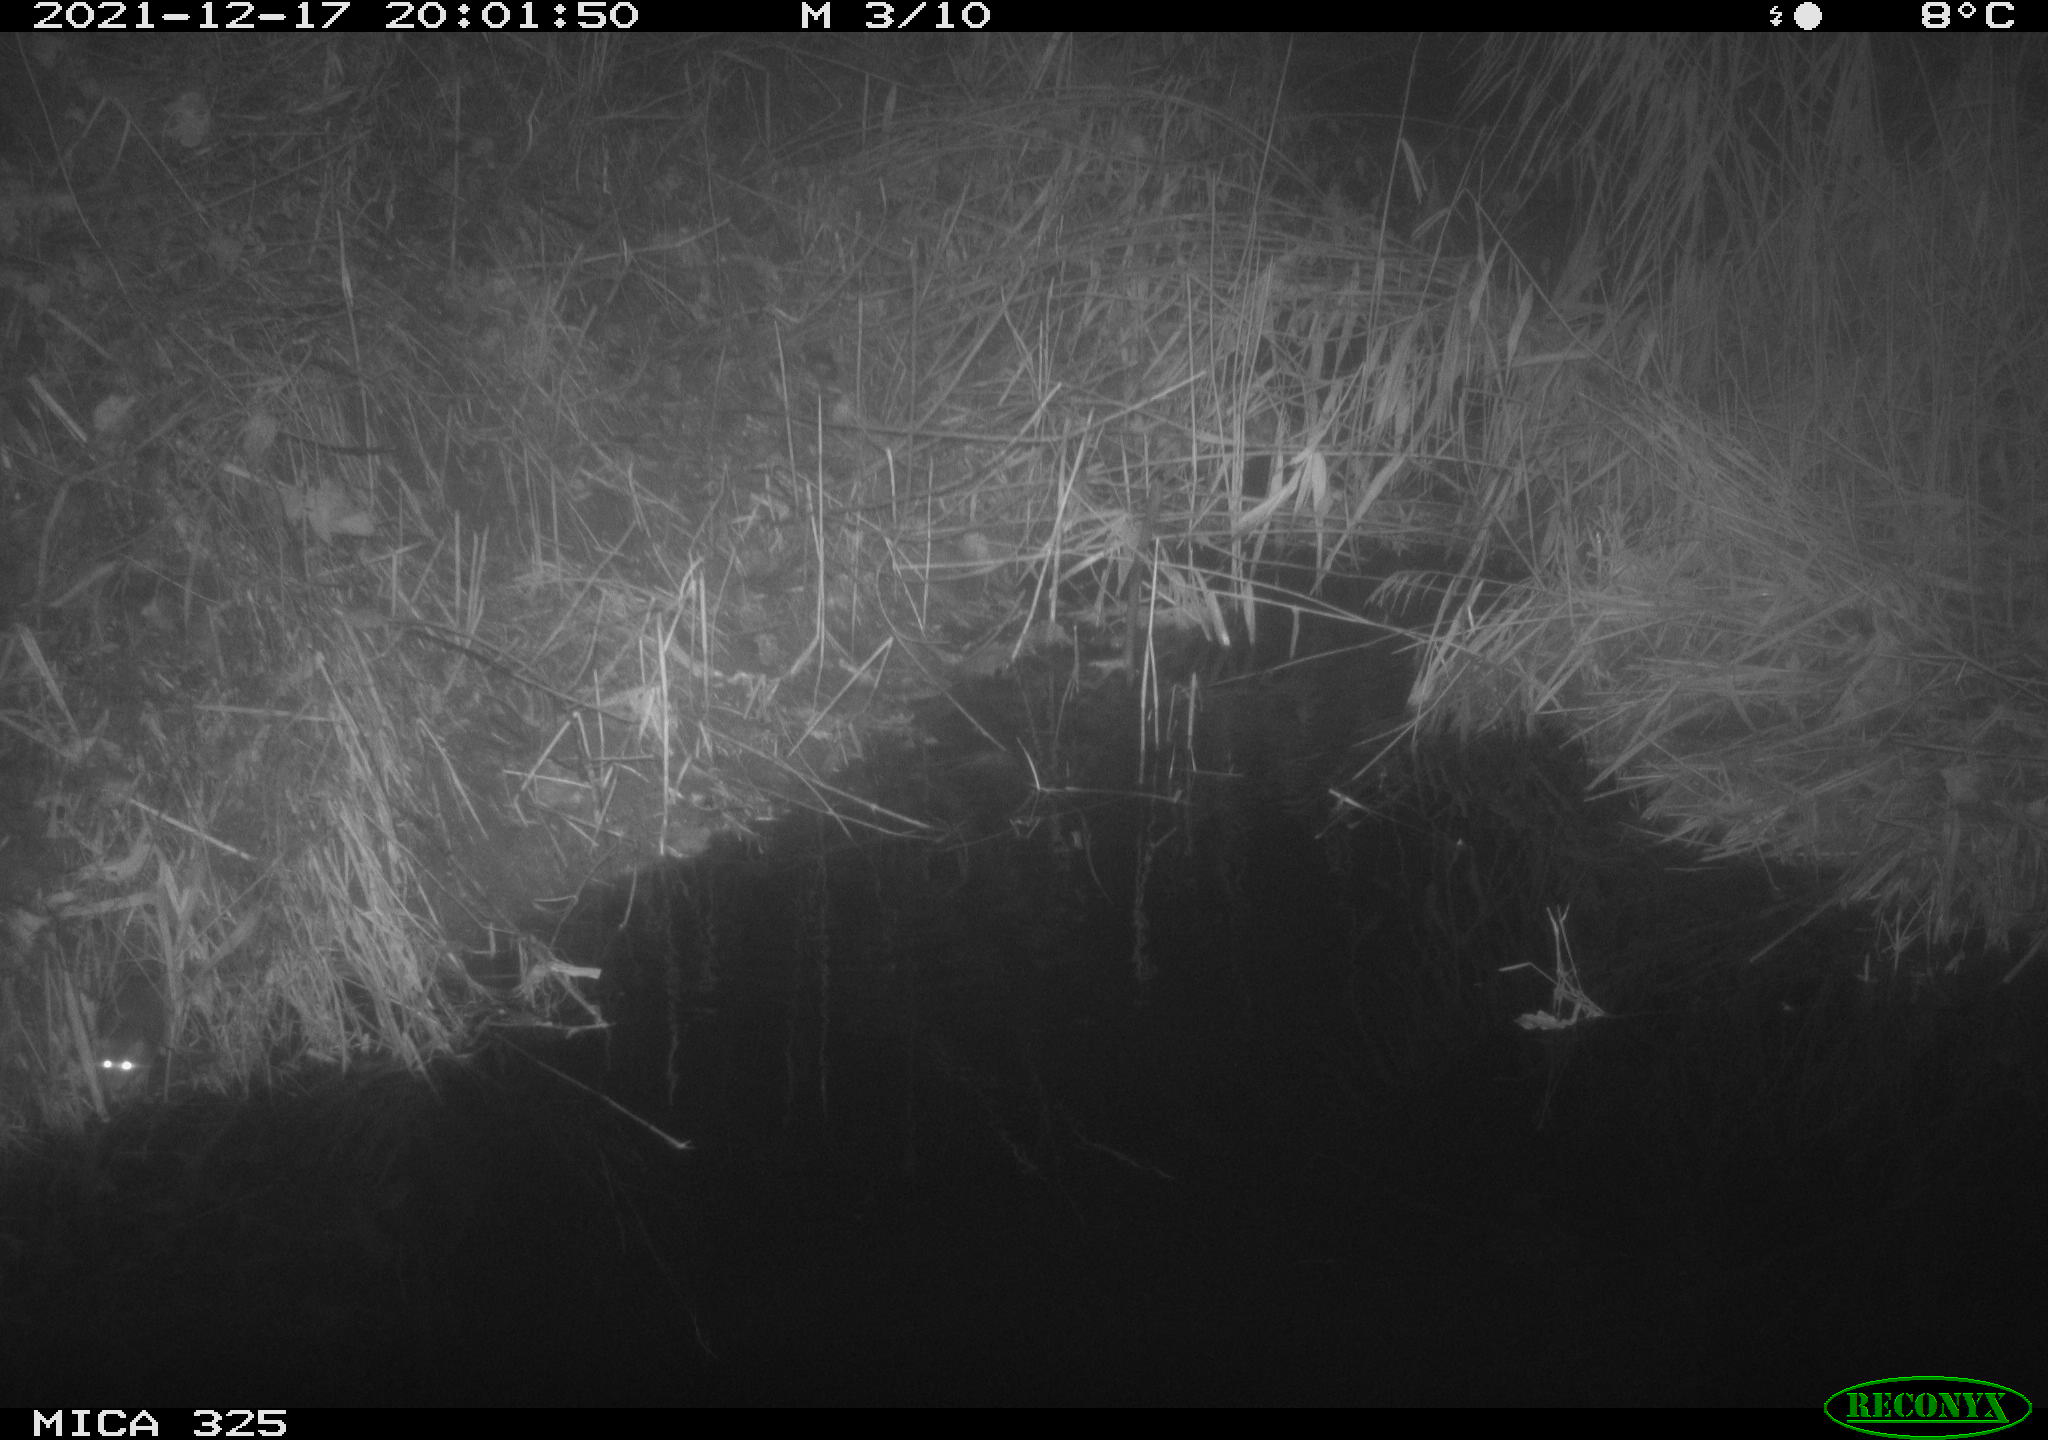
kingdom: Animalia
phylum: Chordata
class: Mammalia
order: Rodentia
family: Muridae
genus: Rattus
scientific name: Rattus norvegicus
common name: Brown rat
